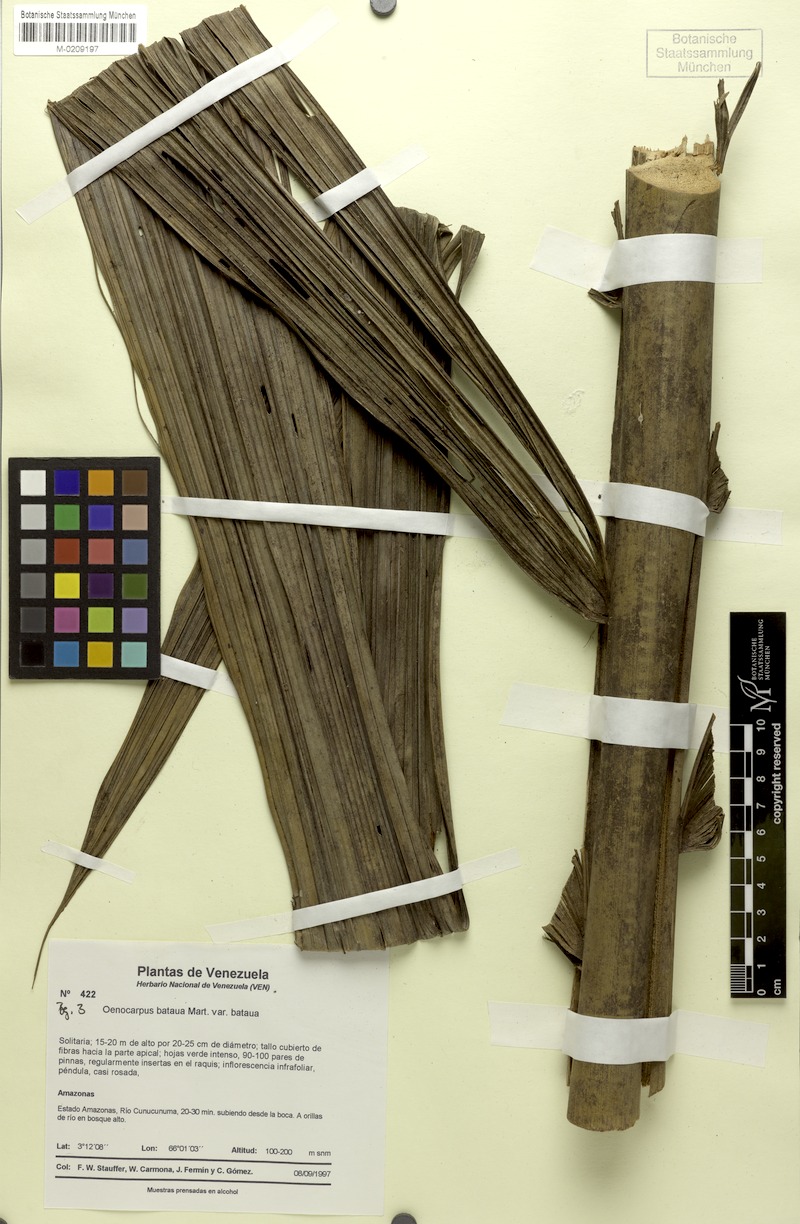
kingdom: Plantae
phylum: Tracheophyta
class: Liliopsida
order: Arecales
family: Arecaceae
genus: Oenocarpus
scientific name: Oenocarpus bataua
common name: Bataua palm
